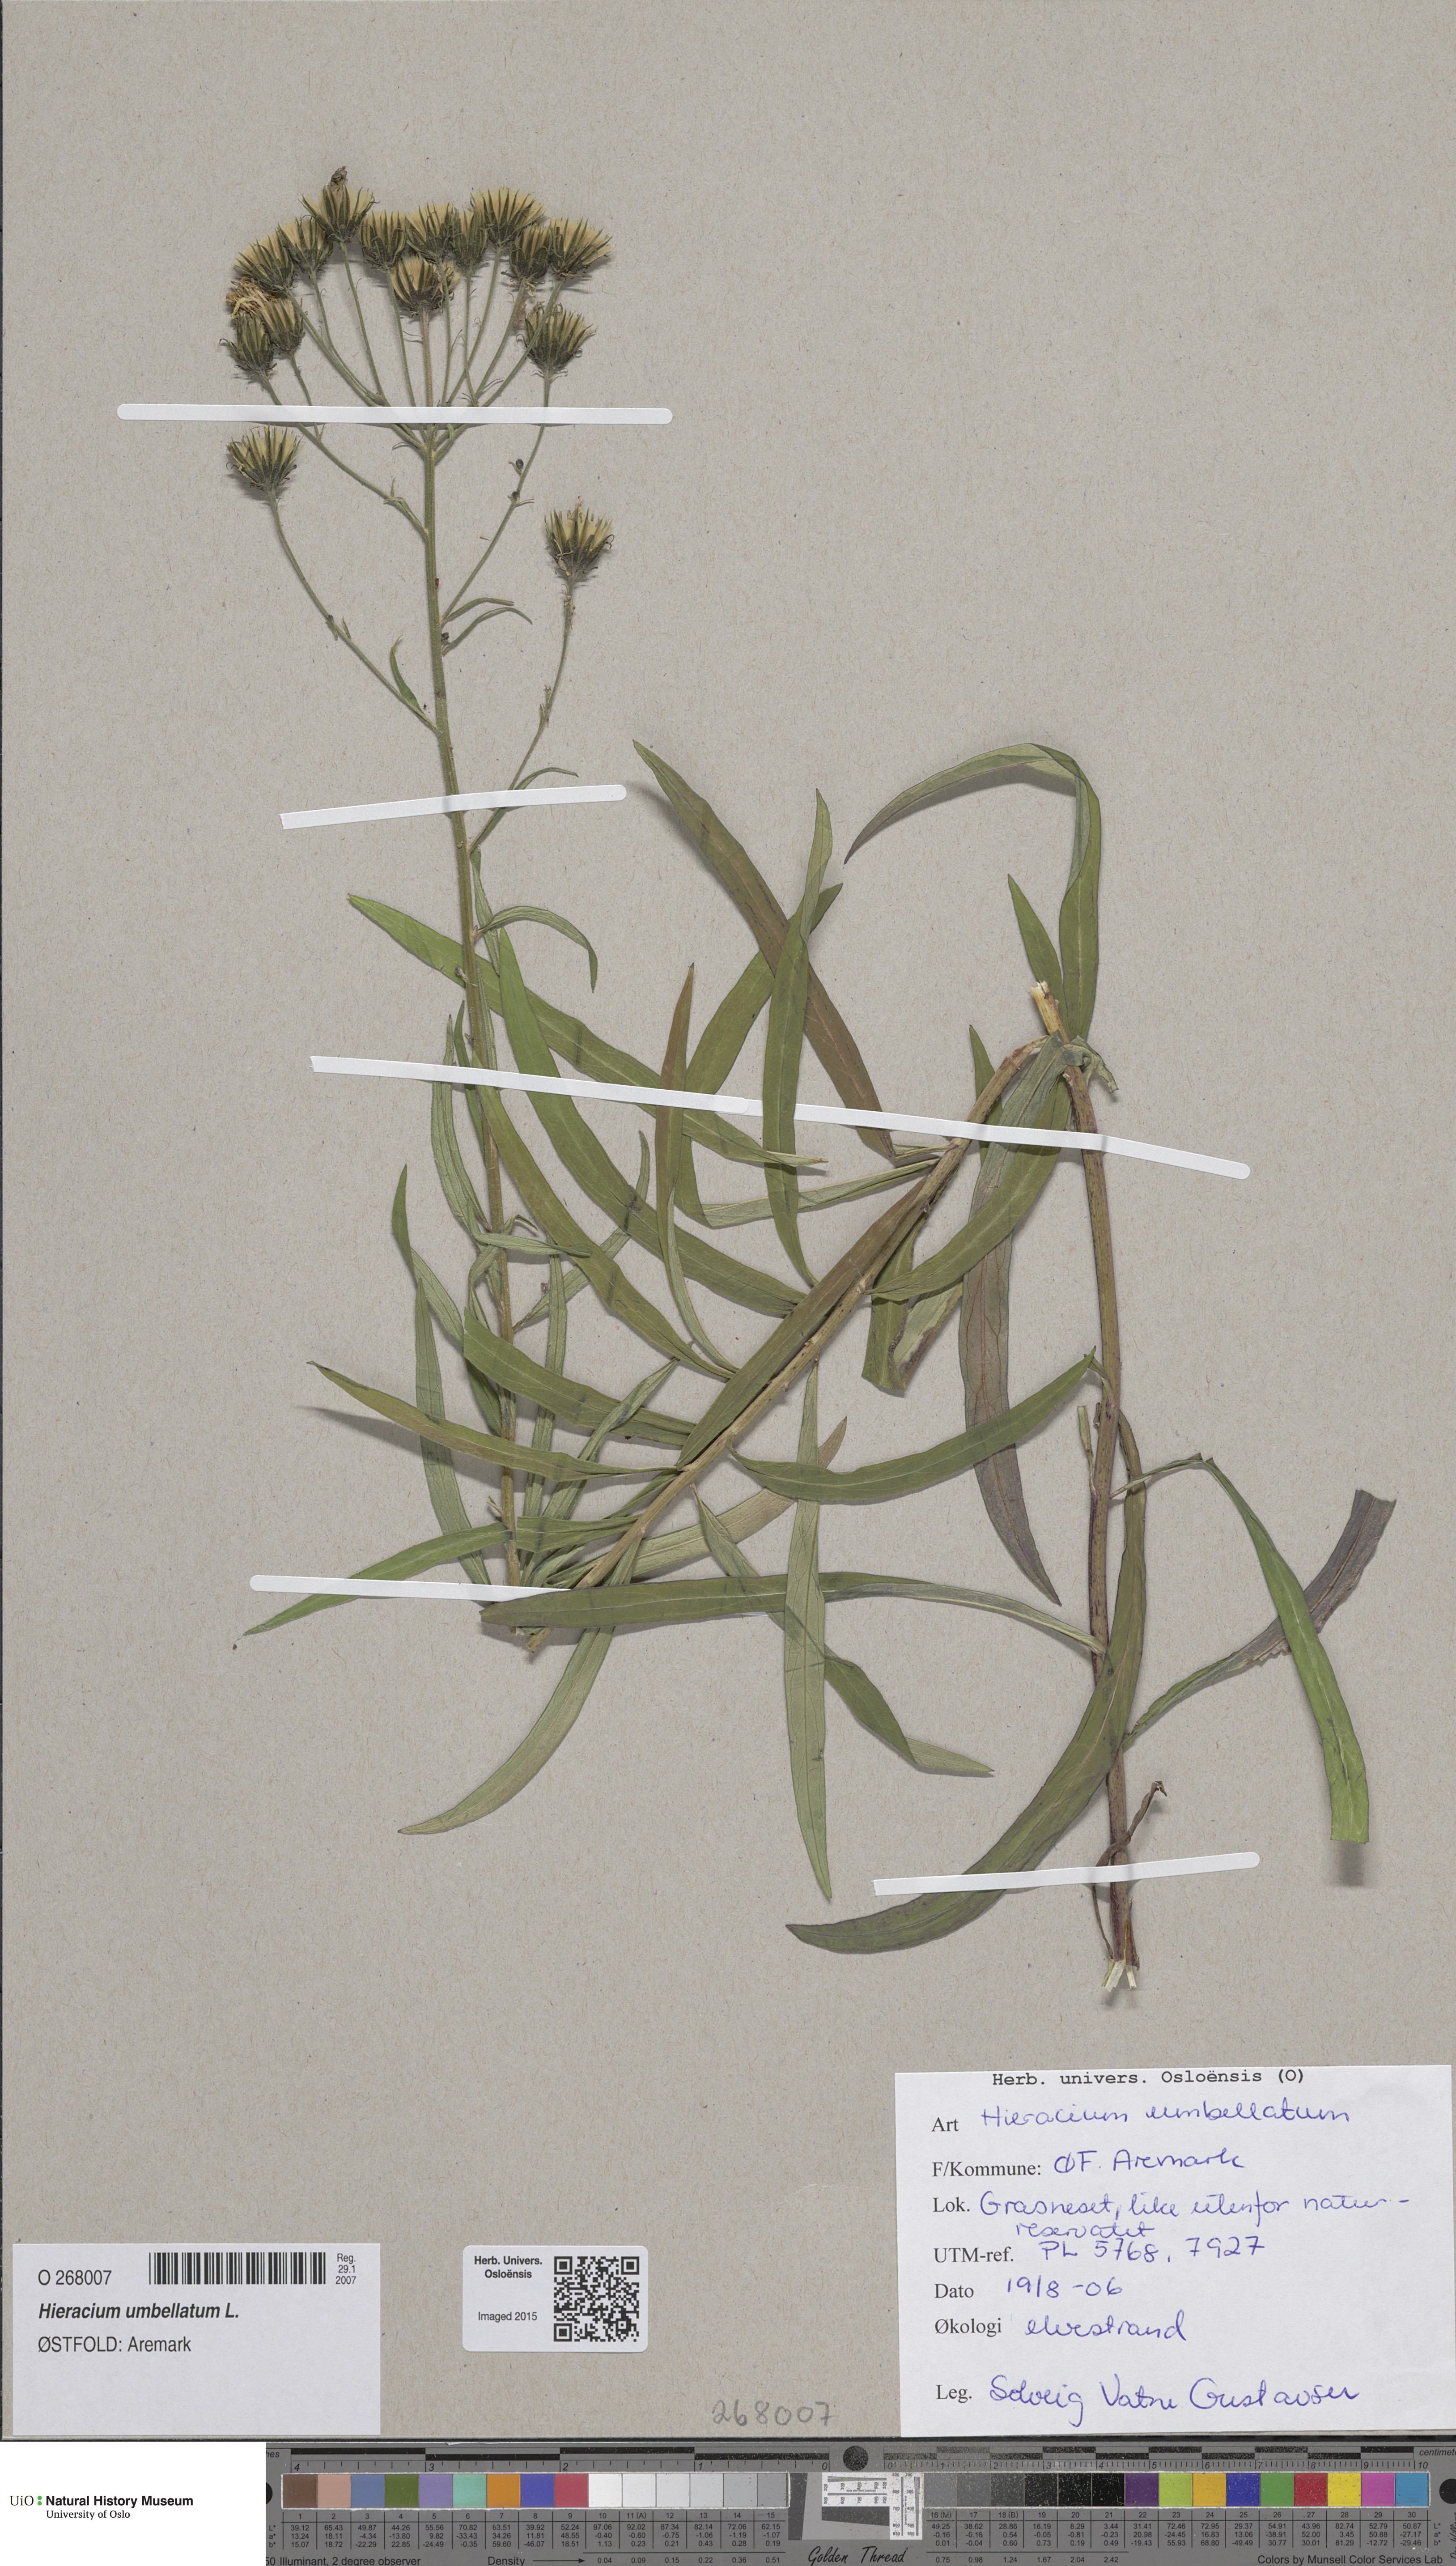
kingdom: Plantae
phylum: Tracheophyta
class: Magnoliopsida
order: Asterales
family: Asteraceae
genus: Hieracium
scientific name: Hieracium umbellatum
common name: Northern hawkweed
